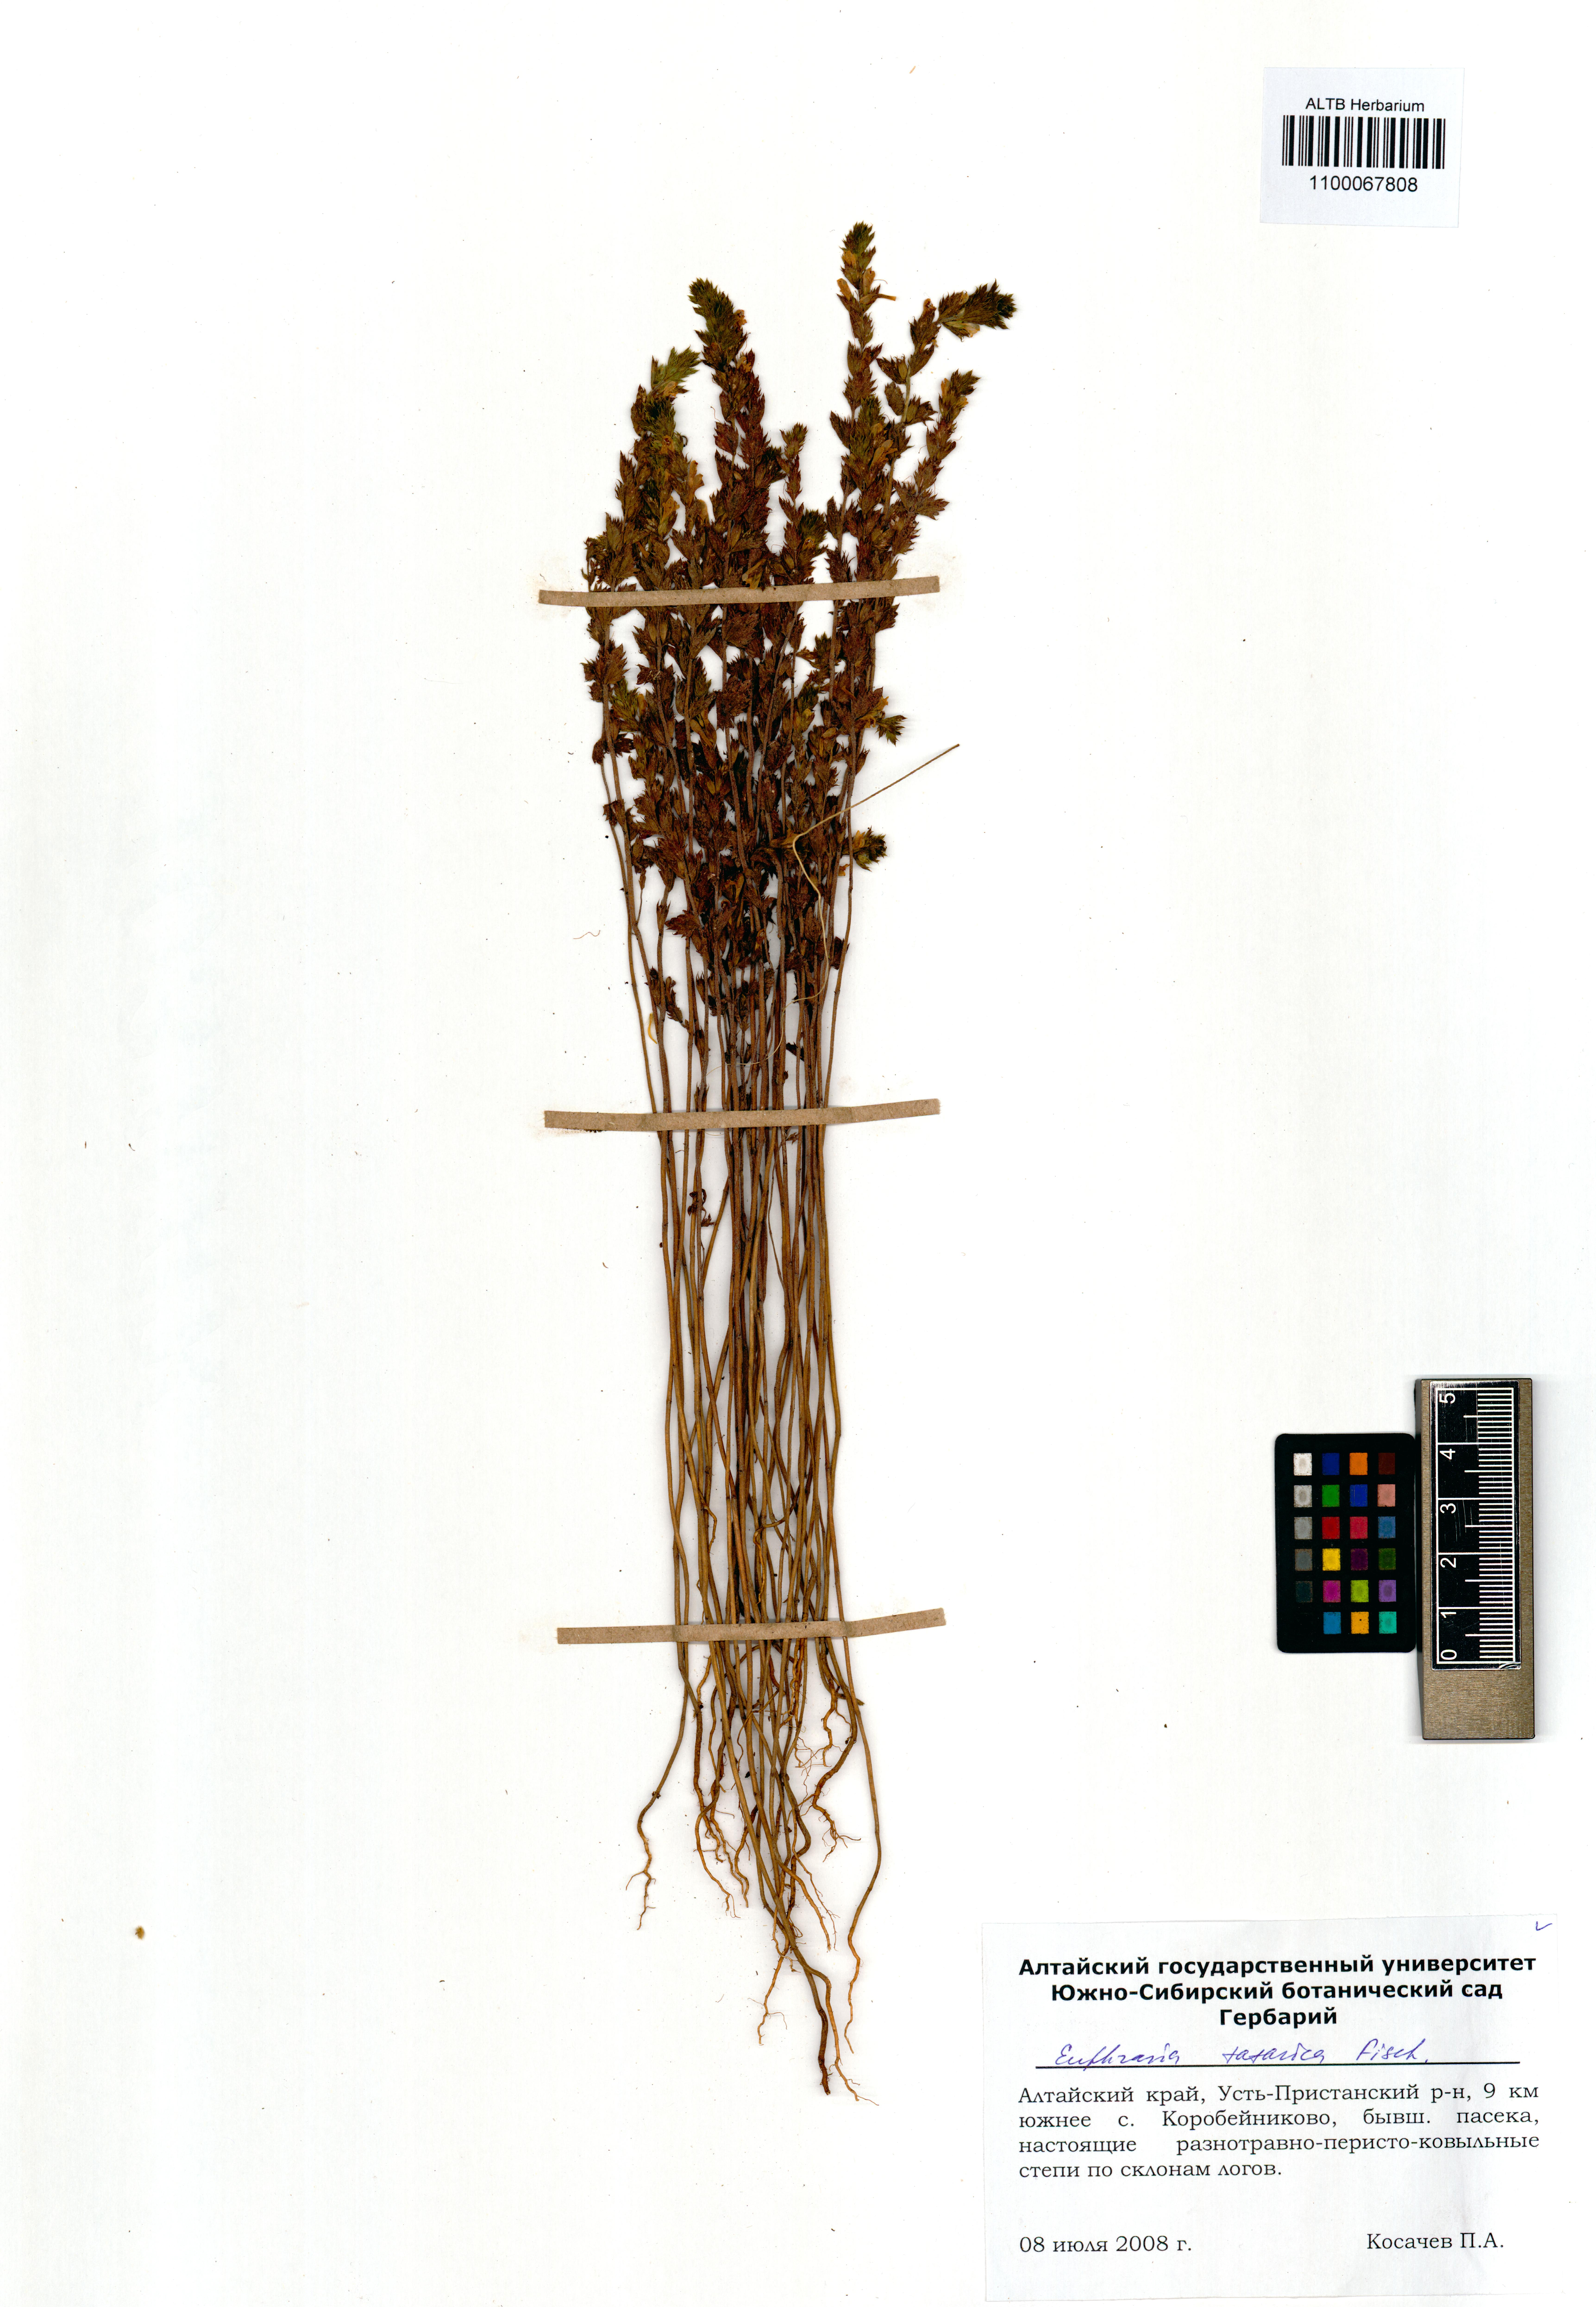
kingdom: Plantae
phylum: Tracheophyta
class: Magnoliopsida
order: Lamiales
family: Orobanchaceae
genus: Euphrasia
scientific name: Euphrasia pectinata
